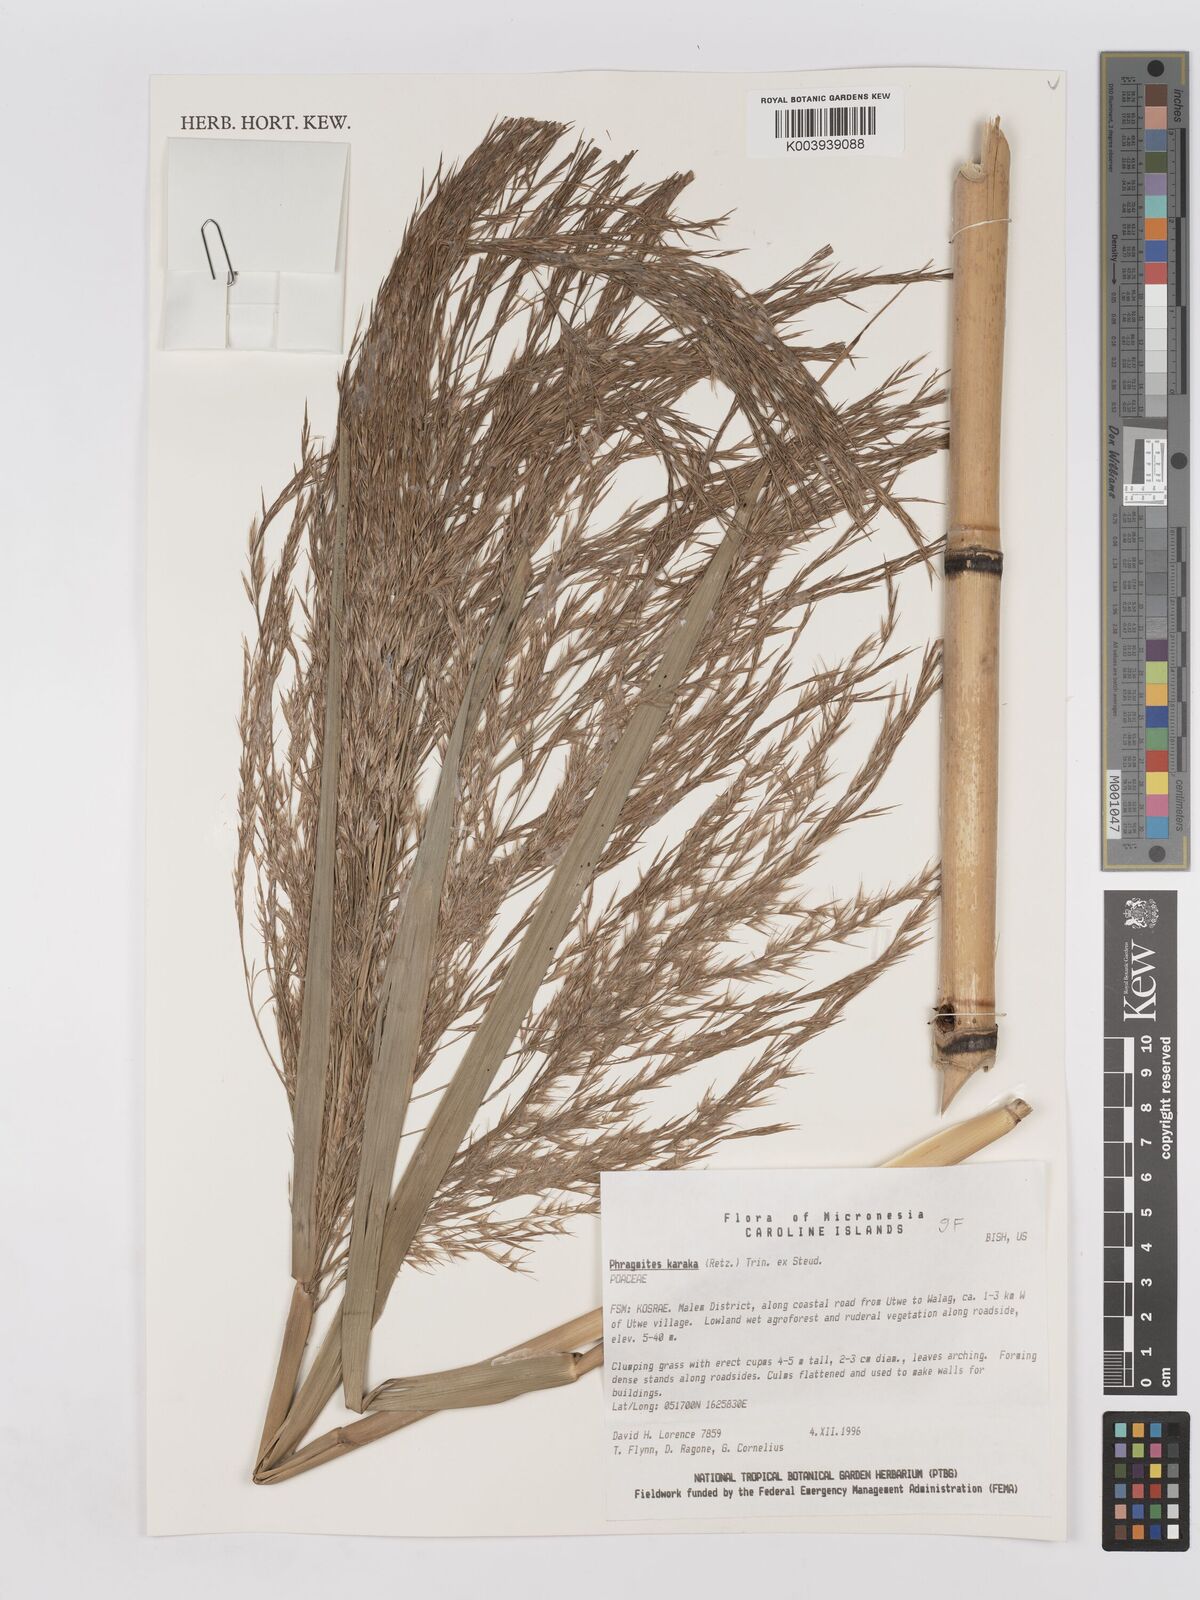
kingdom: Plantae
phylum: Tracheophyta
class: Liliopsida
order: Poales
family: Poaceae
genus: Phragmites
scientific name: Phragmites karka
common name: Tropical reed
